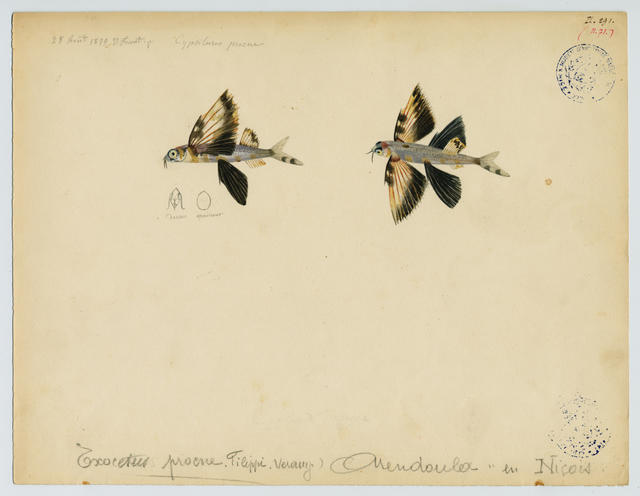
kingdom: Animalia
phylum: Chordata
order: Beloniformes
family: Exocoetidae
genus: Cheilopogon
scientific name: Cheilopogon heterurus
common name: Mediterranean flyingfish
